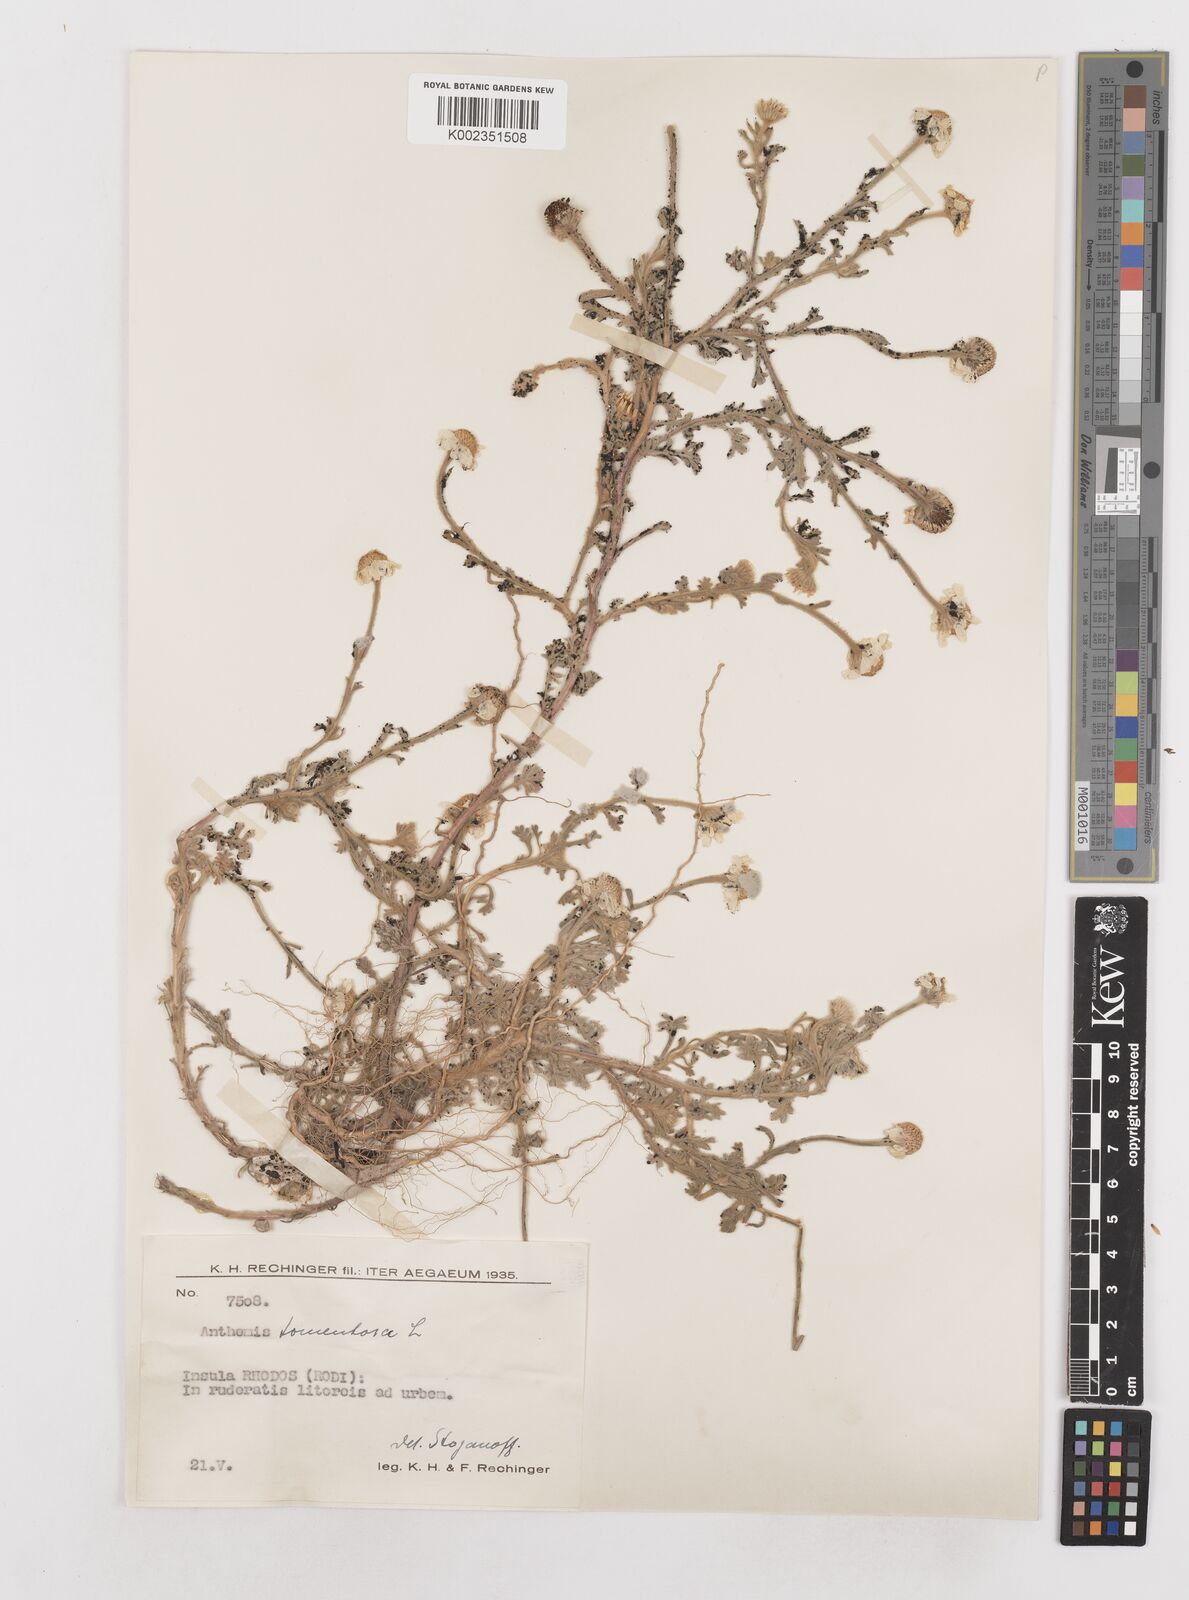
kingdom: Plantae
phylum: Tracheophyta
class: Magnoliopsida
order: Asterales
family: Asteraceae
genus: Anthemis
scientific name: Anthemis tomentosa
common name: Woolly chamomile
